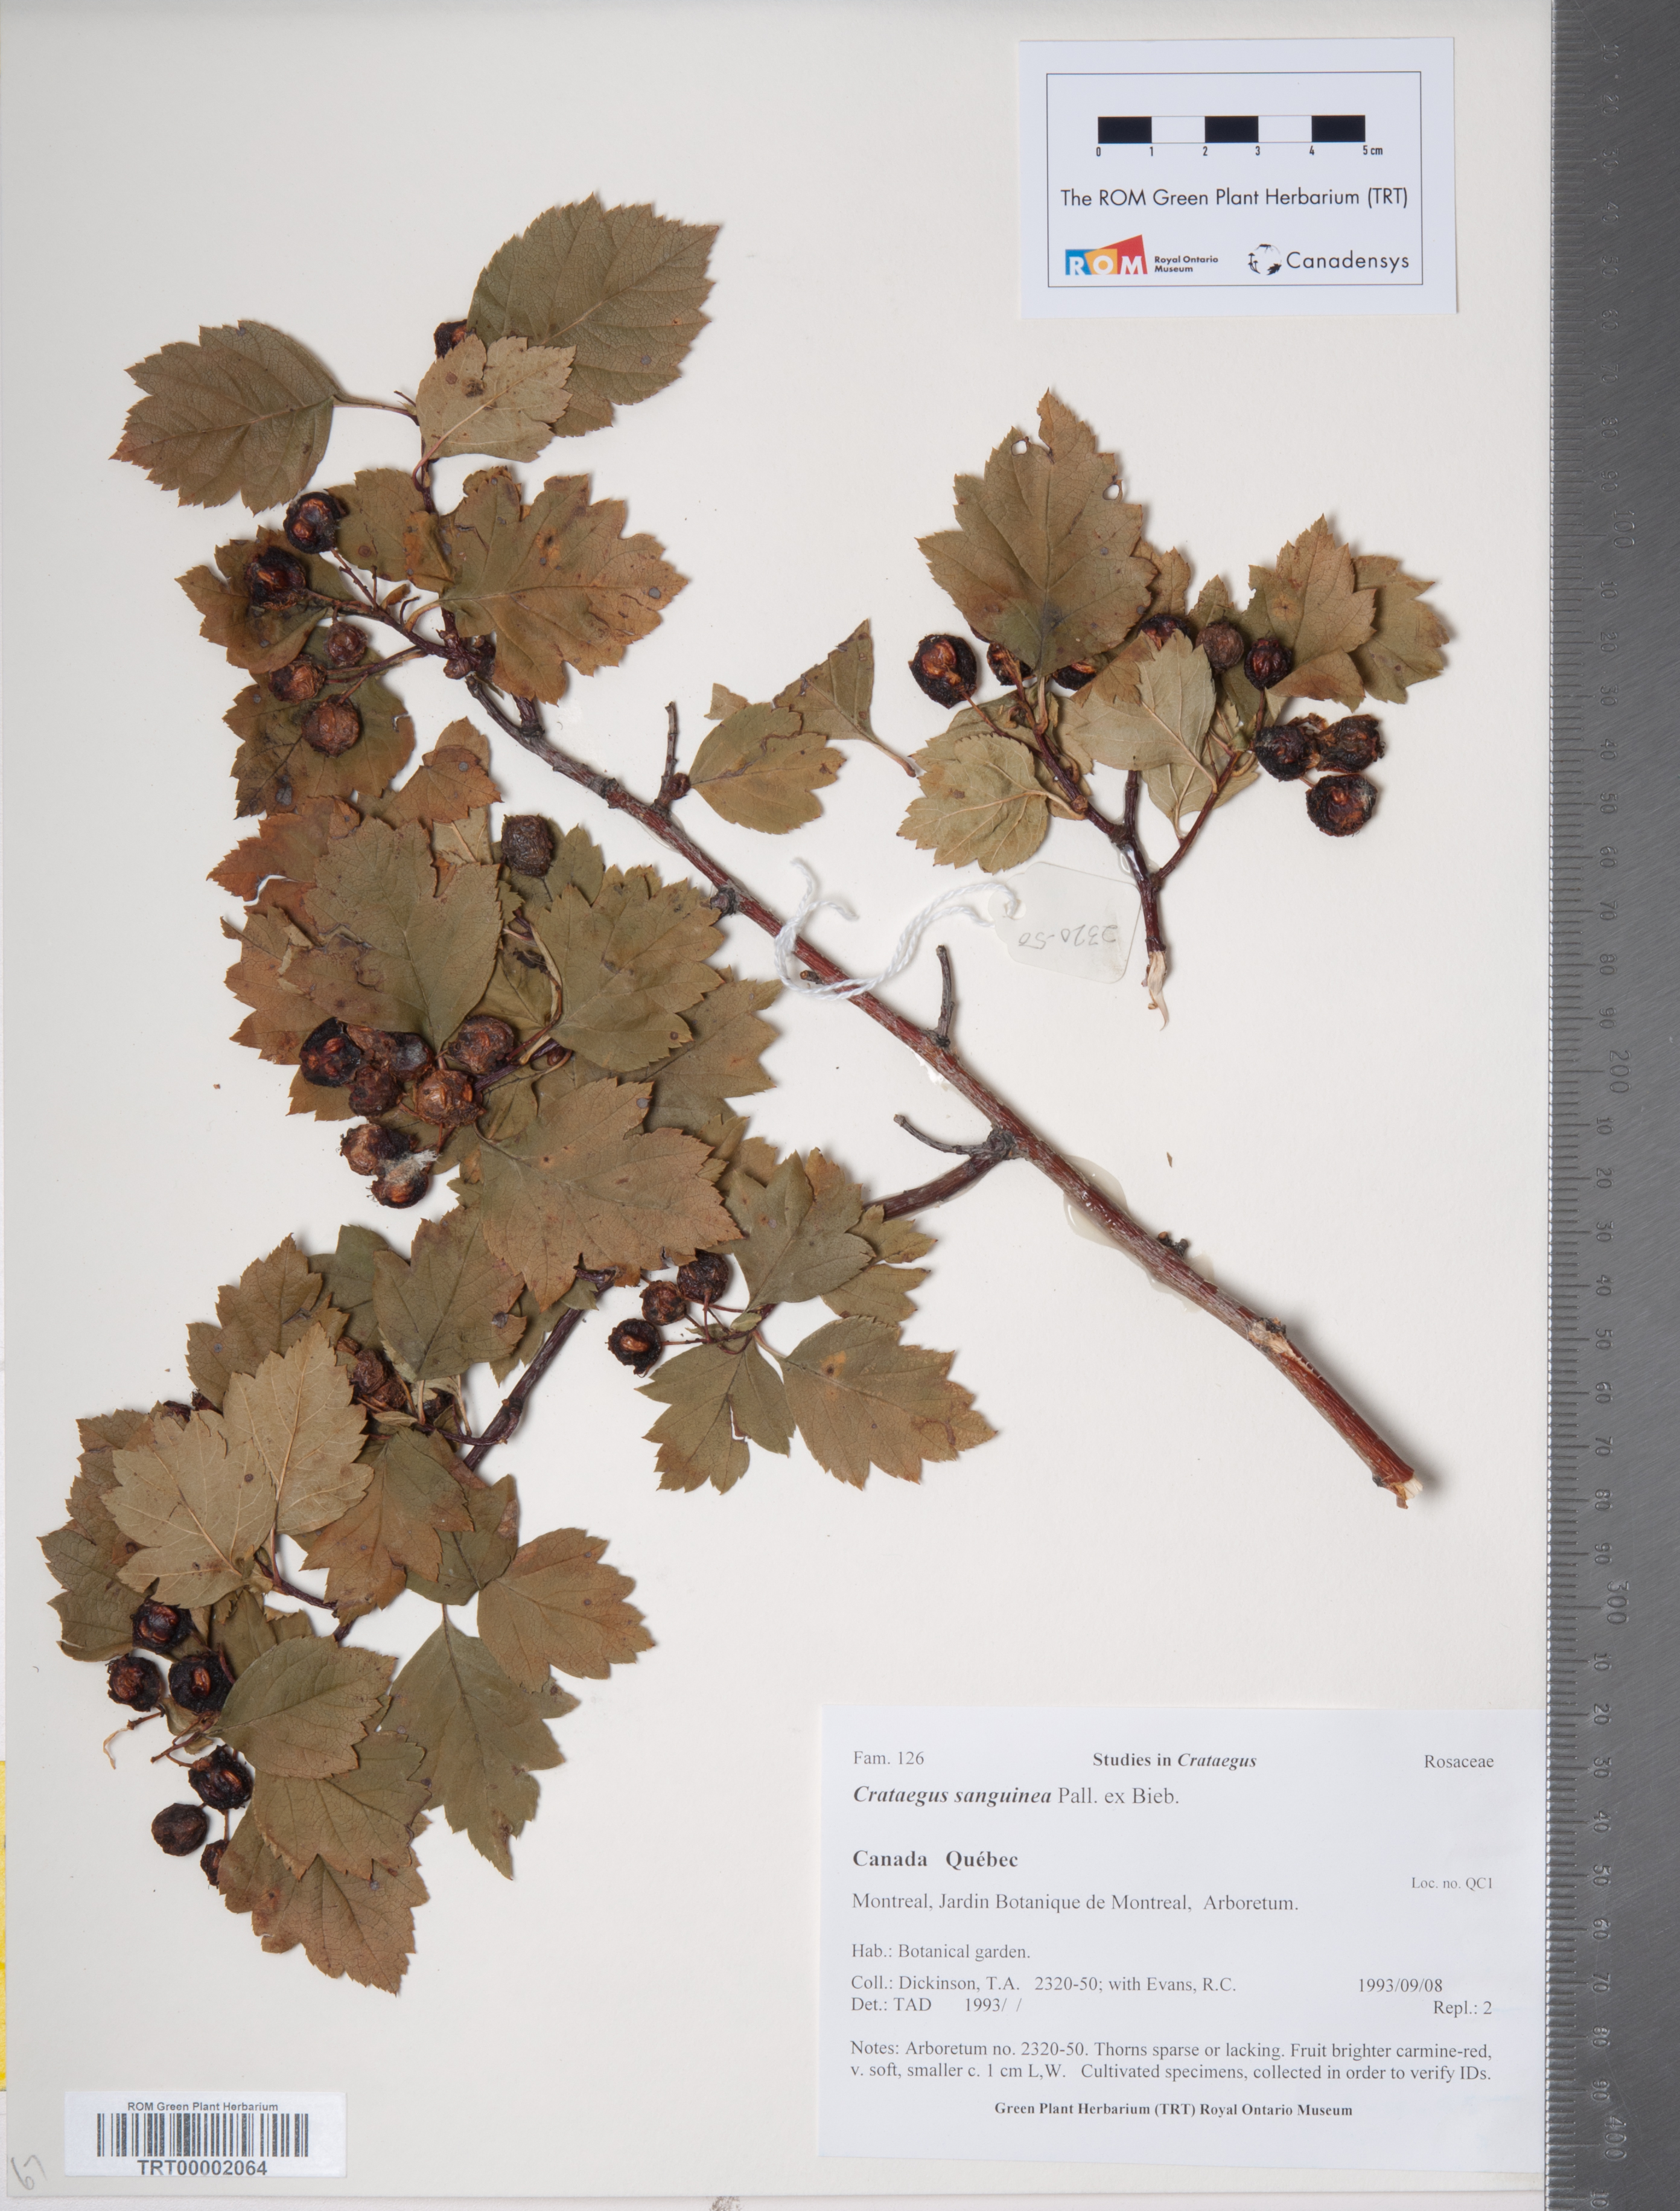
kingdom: Plantae
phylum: Tracheophyta
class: Magnoliopsida
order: Rosales
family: Rosaceae
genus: Crataegus
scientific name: Crataegus sanguinea
